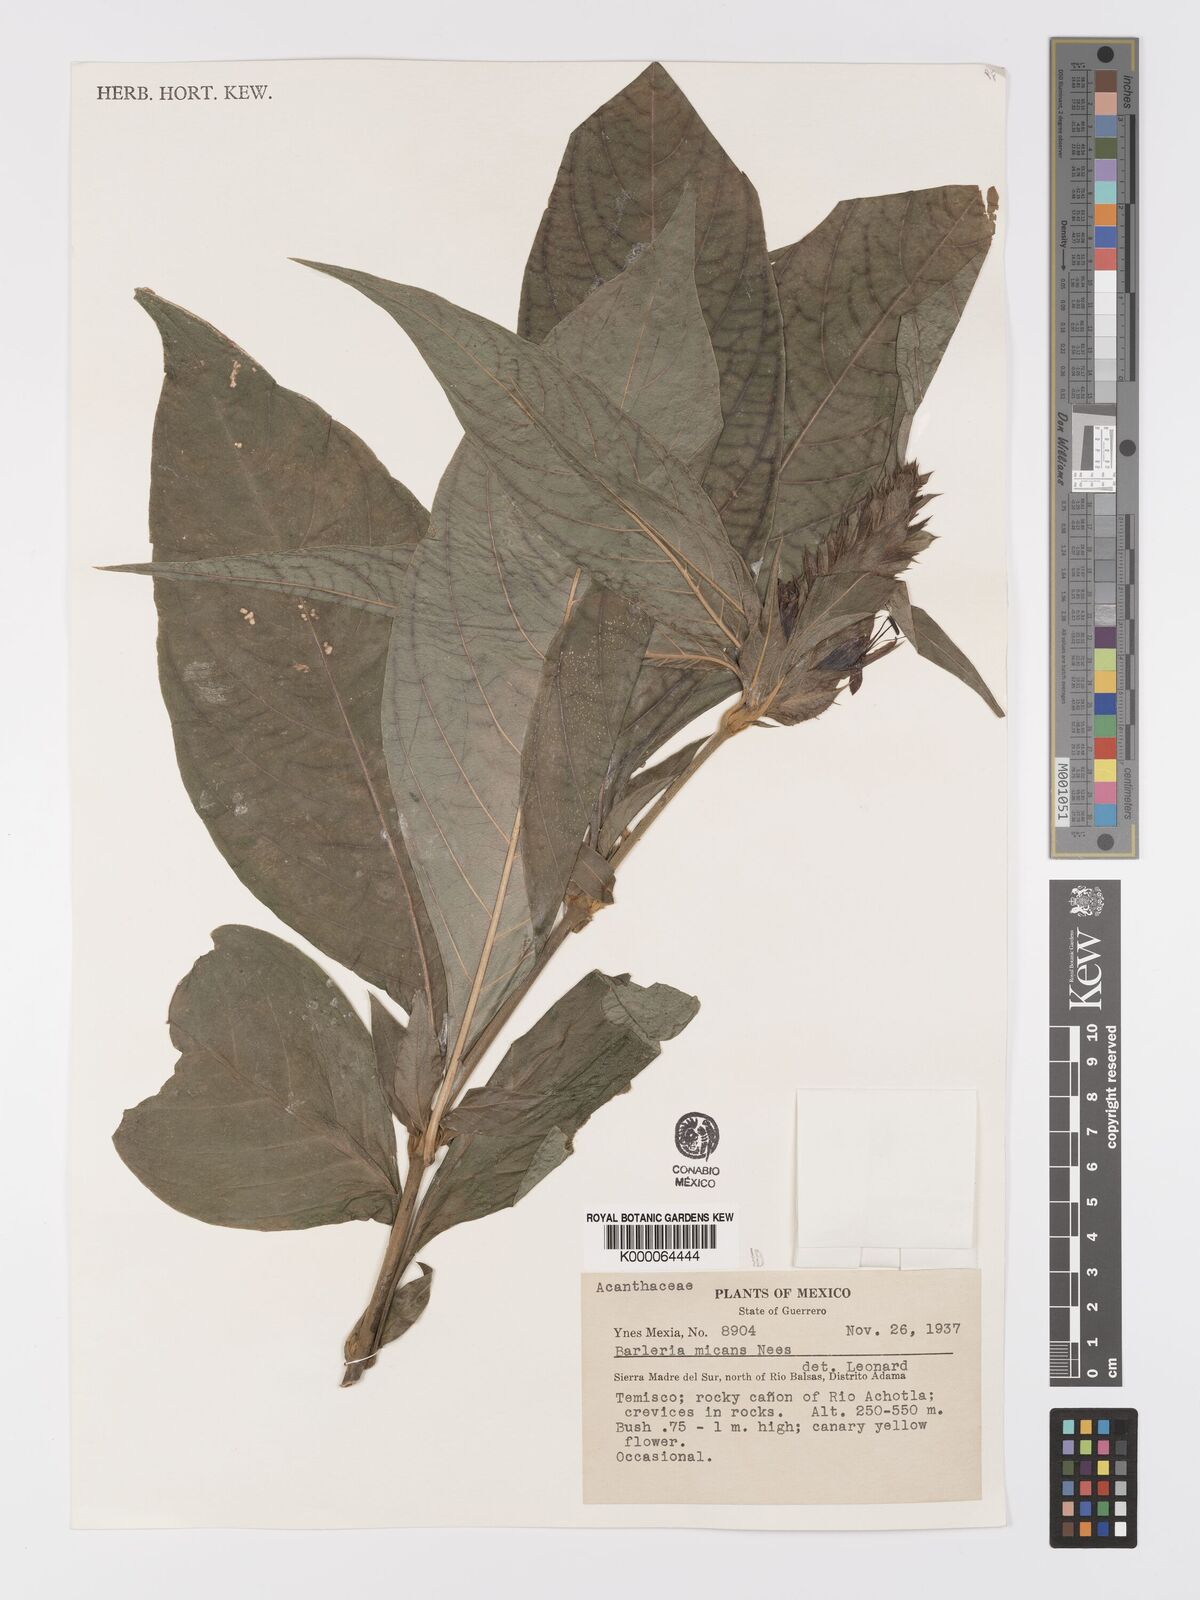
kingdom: Plantae
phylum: Tracheophyta
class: Magnoliopsida
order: Lamiales
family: Acanthaceae
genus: Barleria
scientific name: Barleria oenotheroides
